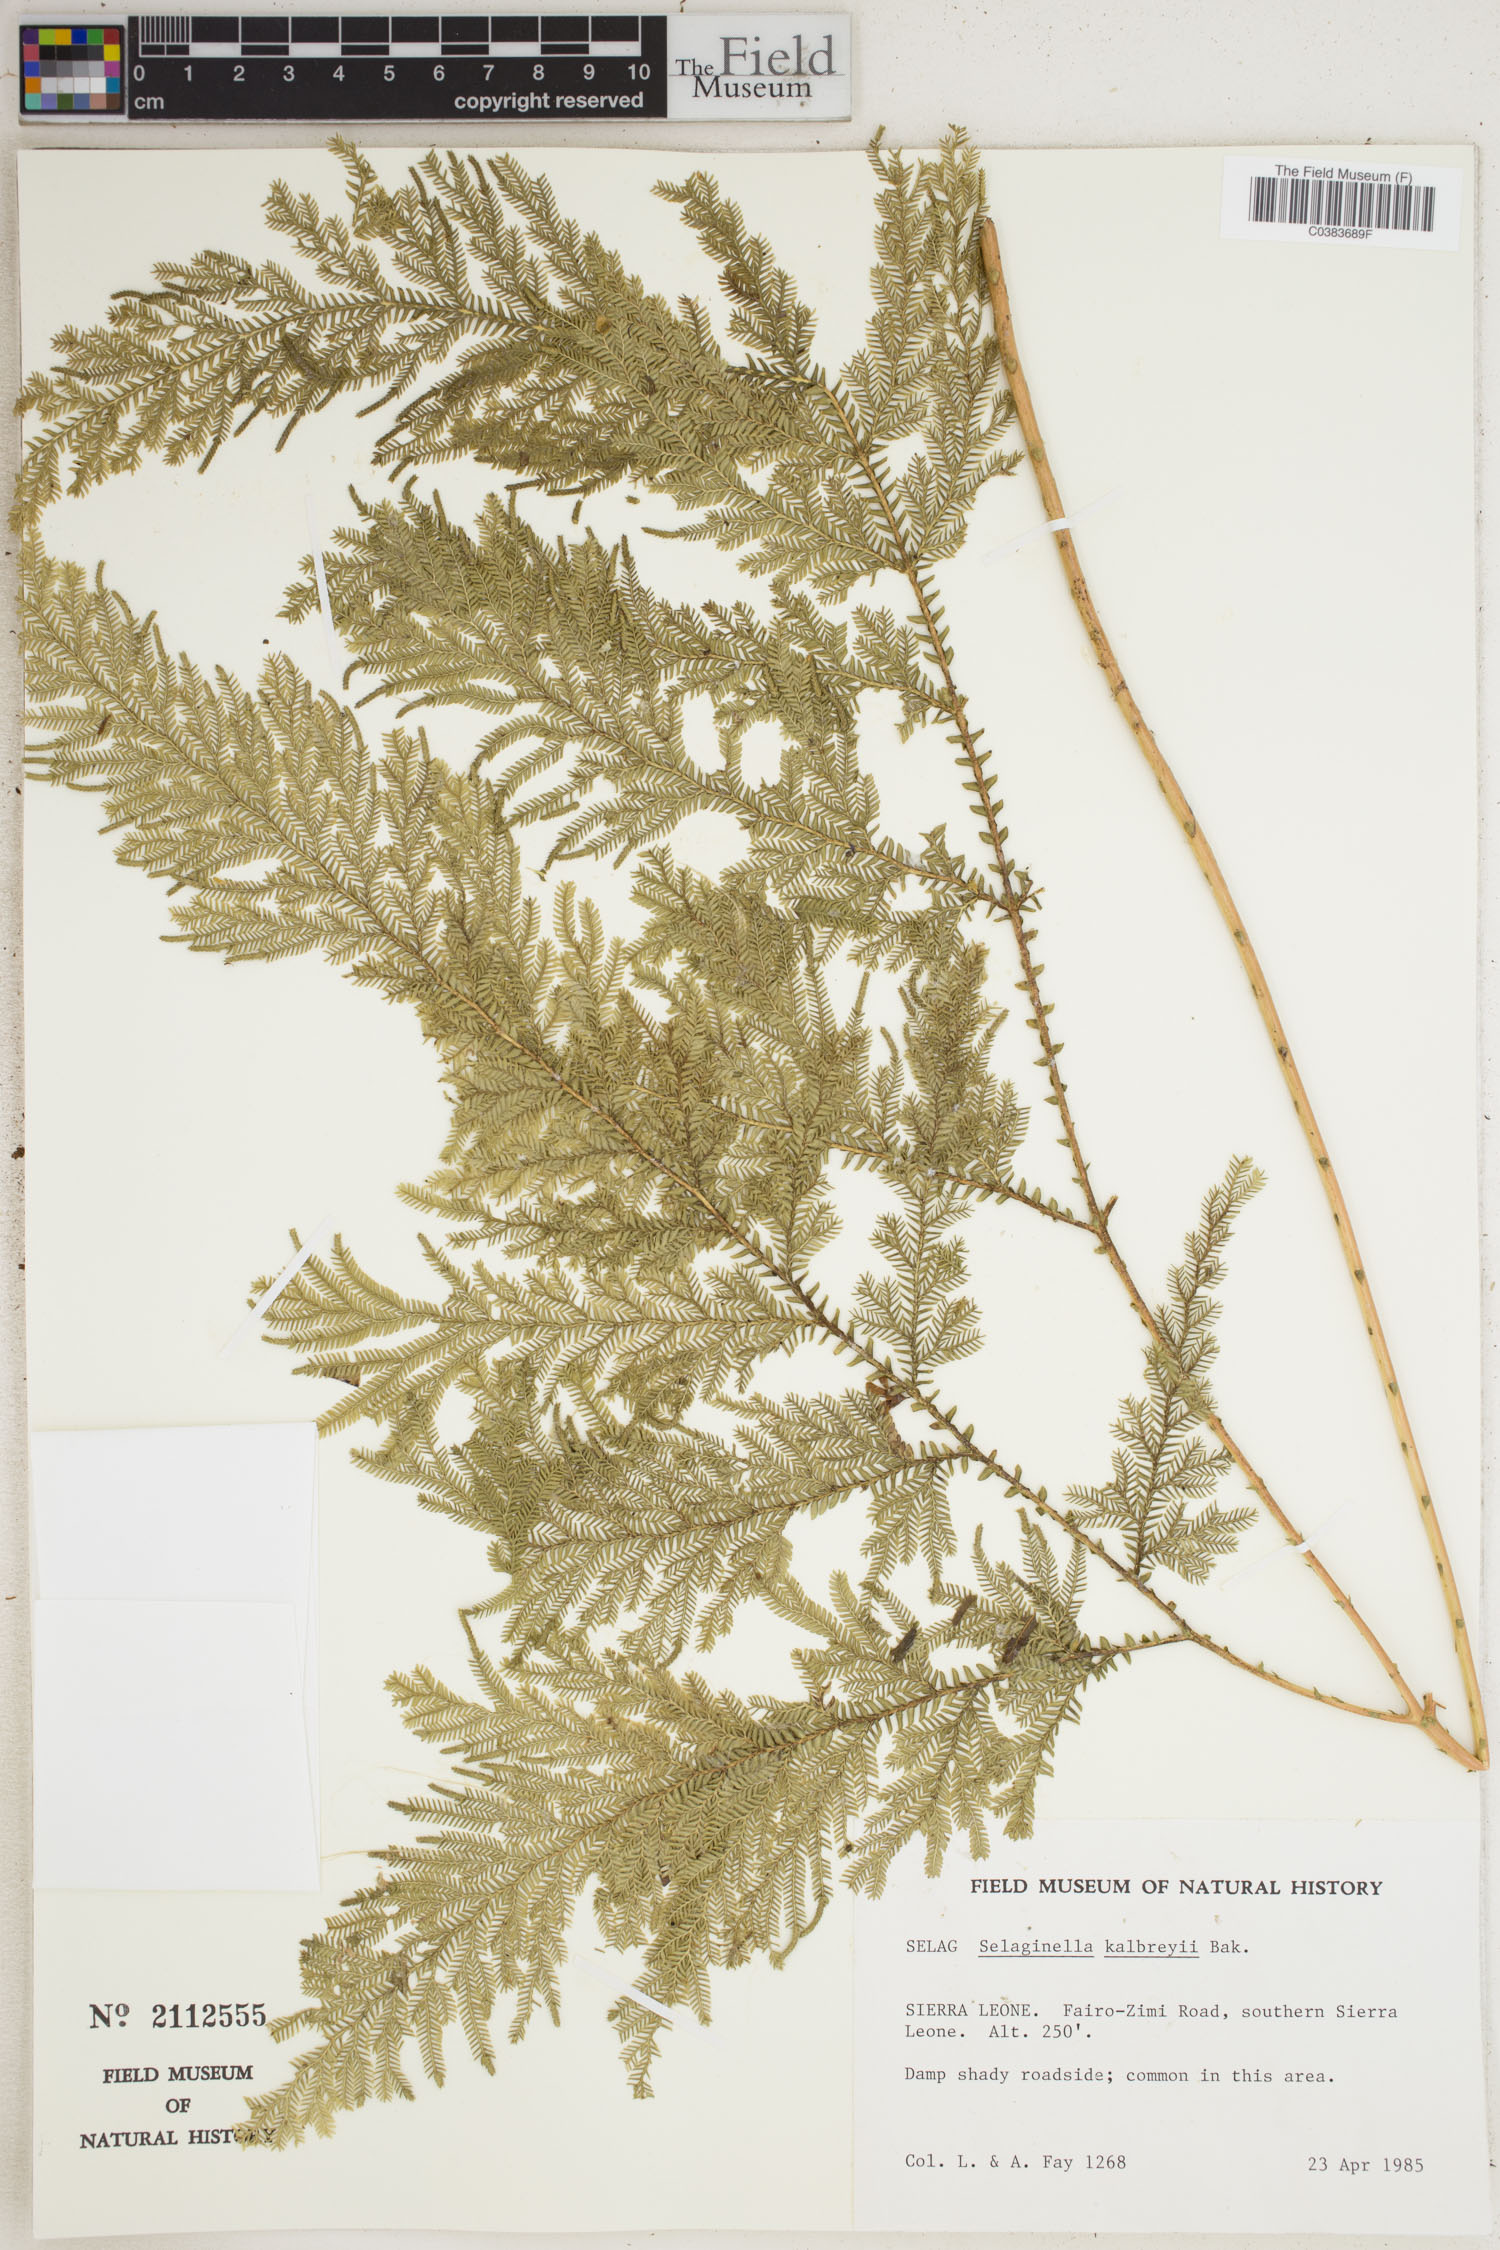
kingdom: Plantae
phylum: Tracheophyta
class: Lycopodiopsida
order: Selaginellales
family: Selaginellaceae
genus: Selaginella
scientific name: Selaginella kalbreyeri
